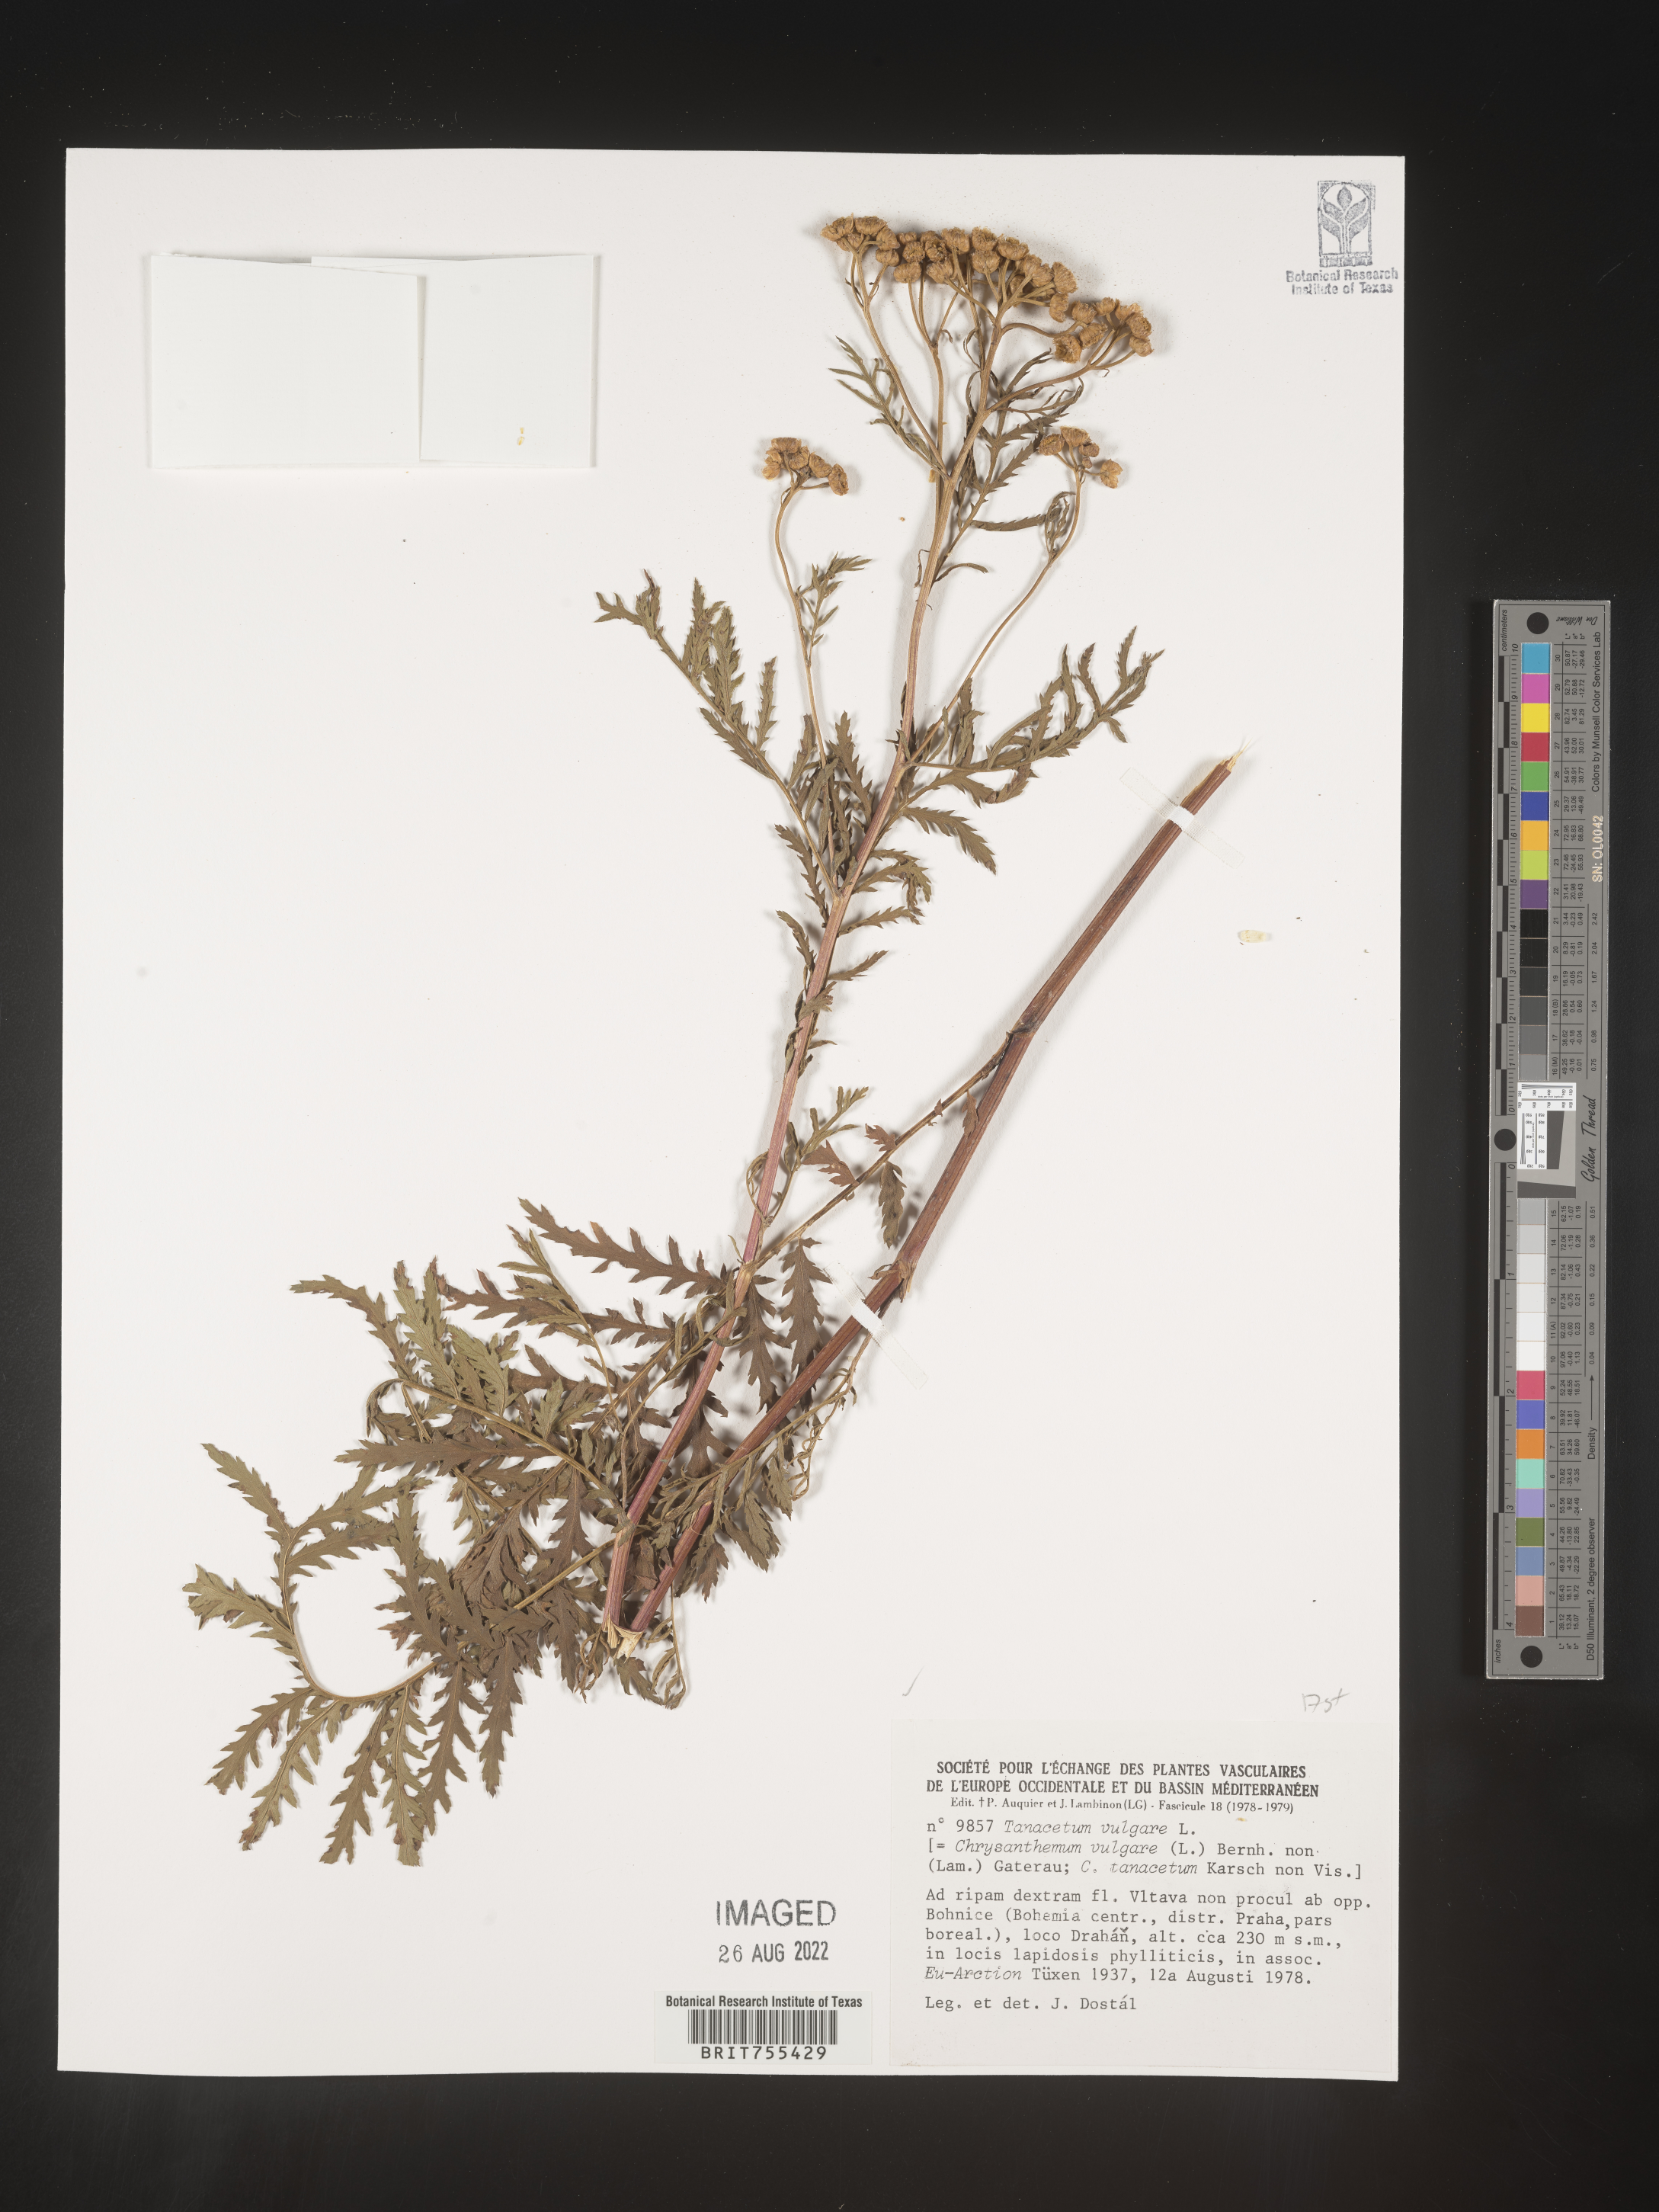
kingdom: Plantae
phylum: Tracheophyta
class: Magnoliopsida
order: Asterales
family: Asteraceae
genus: Tanacetum
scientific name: Tanacetum
